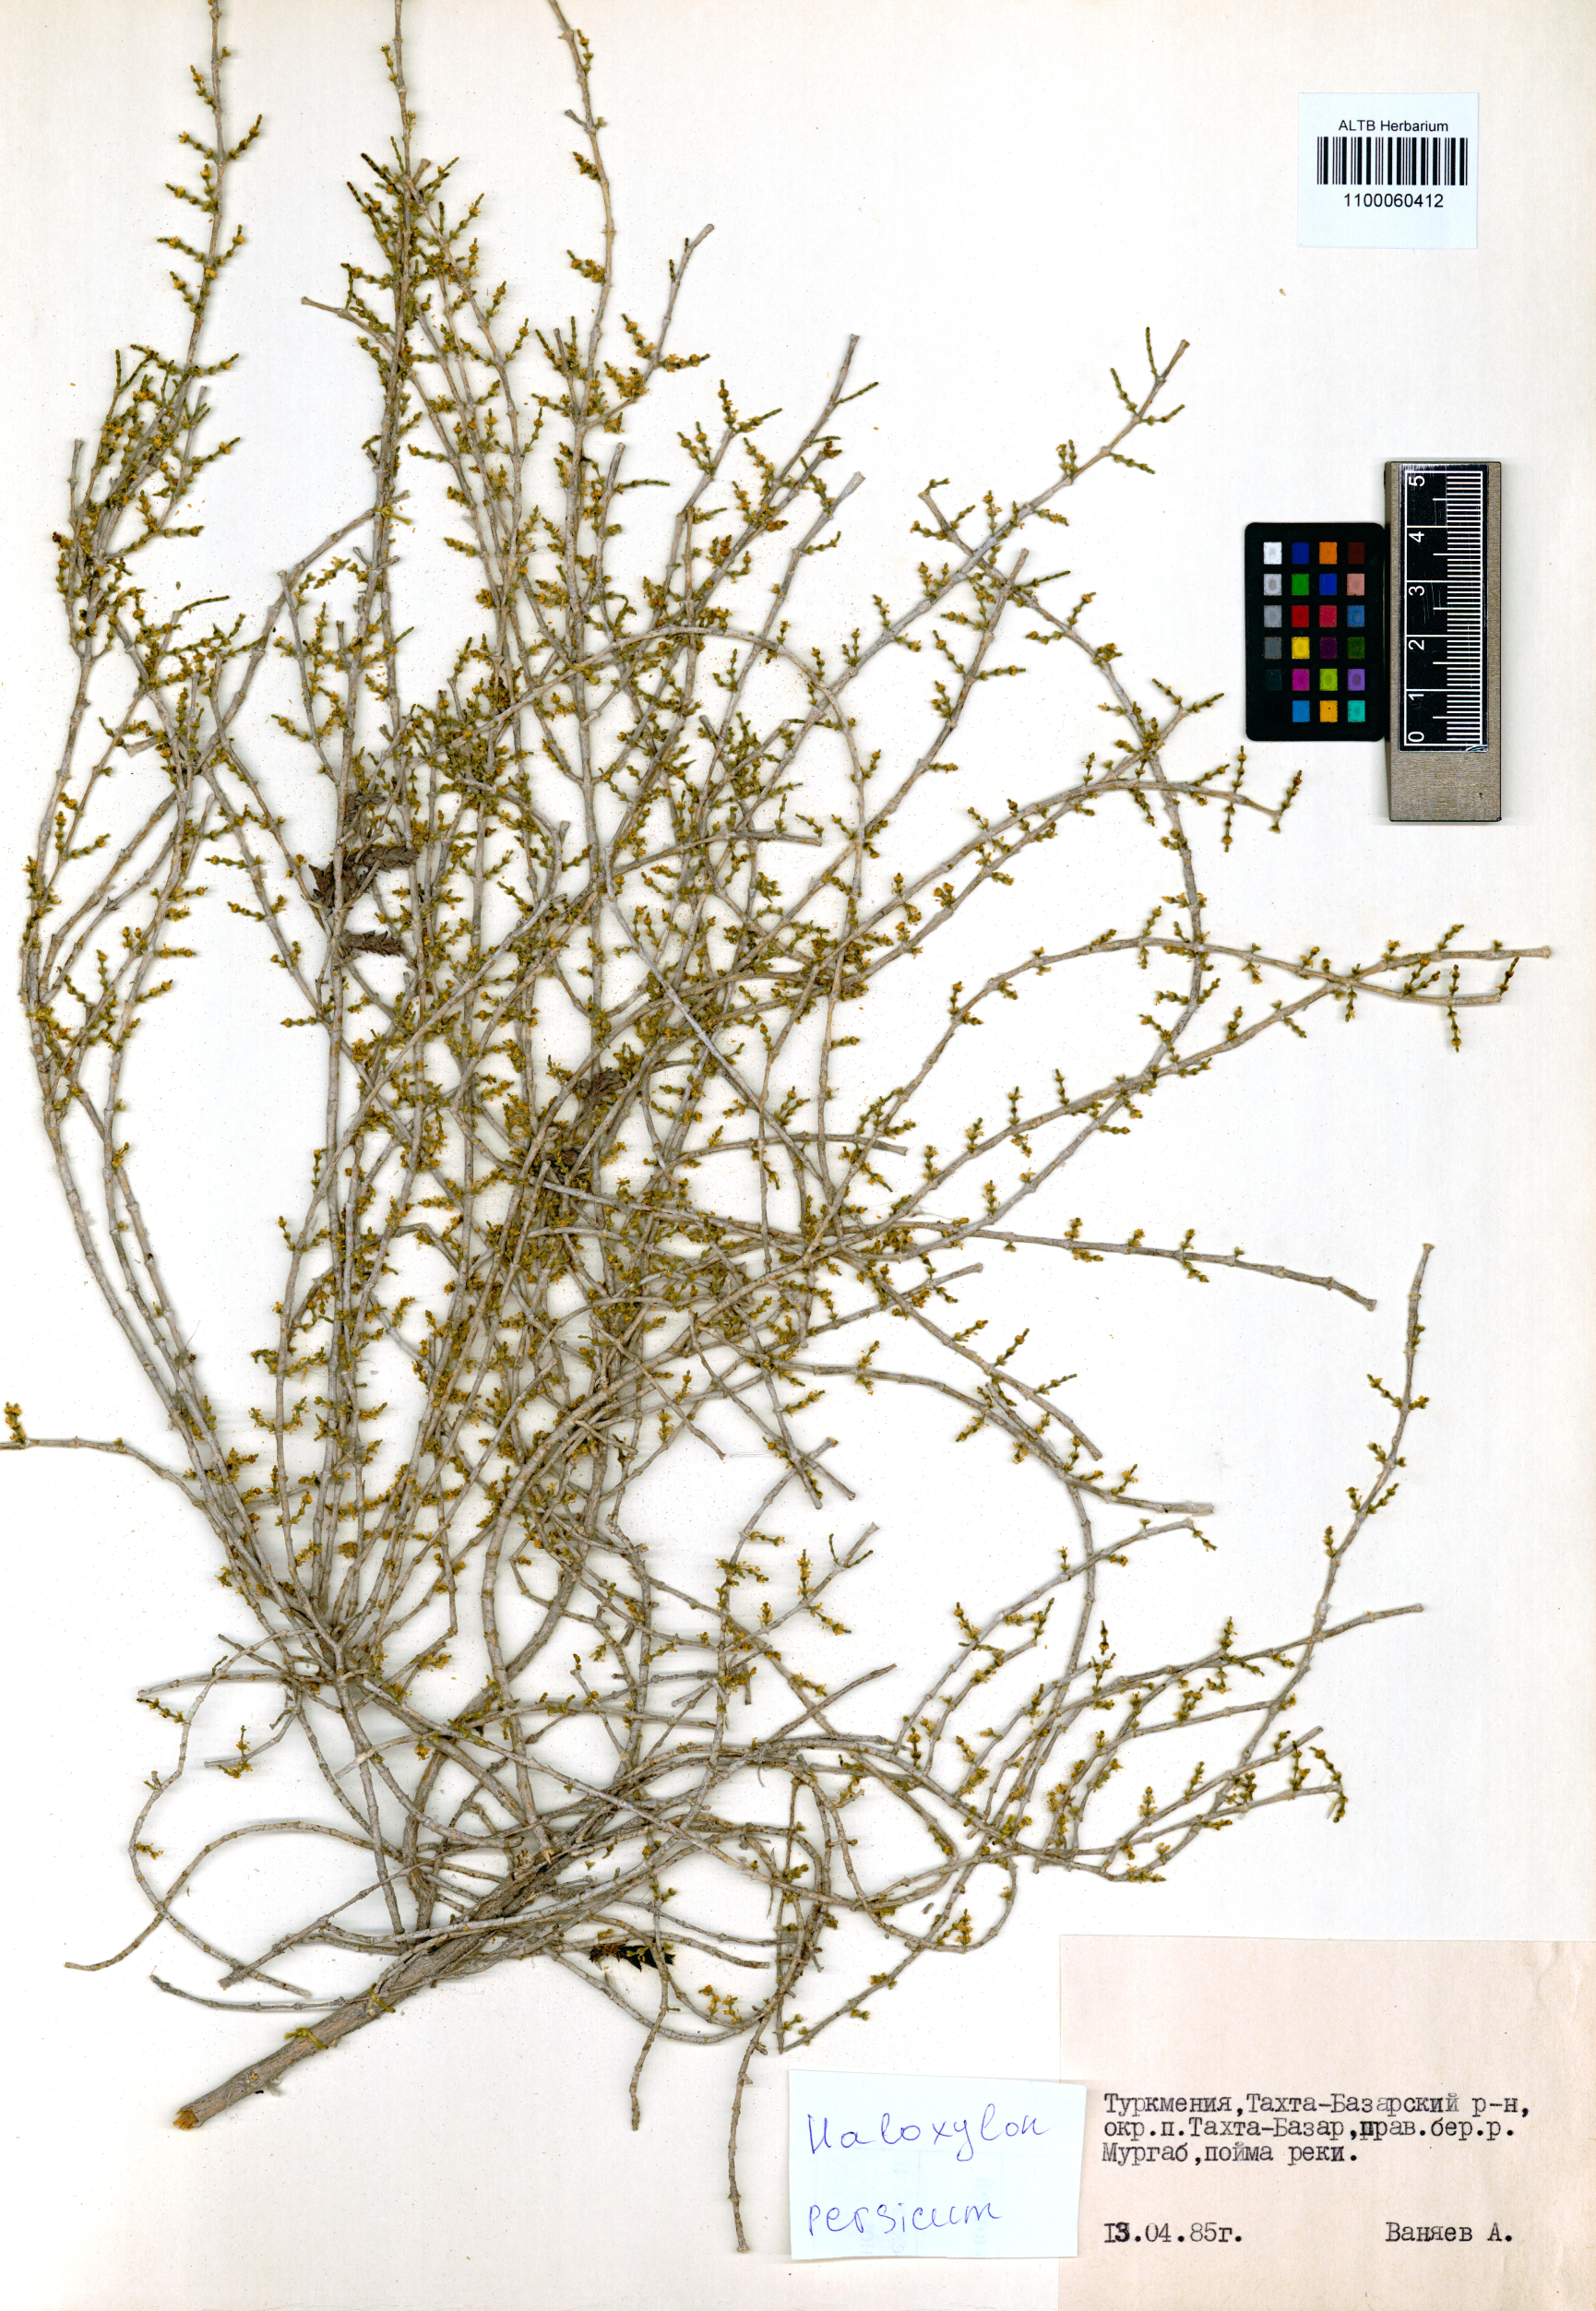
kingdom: Plantae
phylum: Tracheophyta
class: Magnoliopsida
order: Caryophyllales
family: Amaranthaceae
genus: Haloxylon
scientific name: Haloxylon persicum
